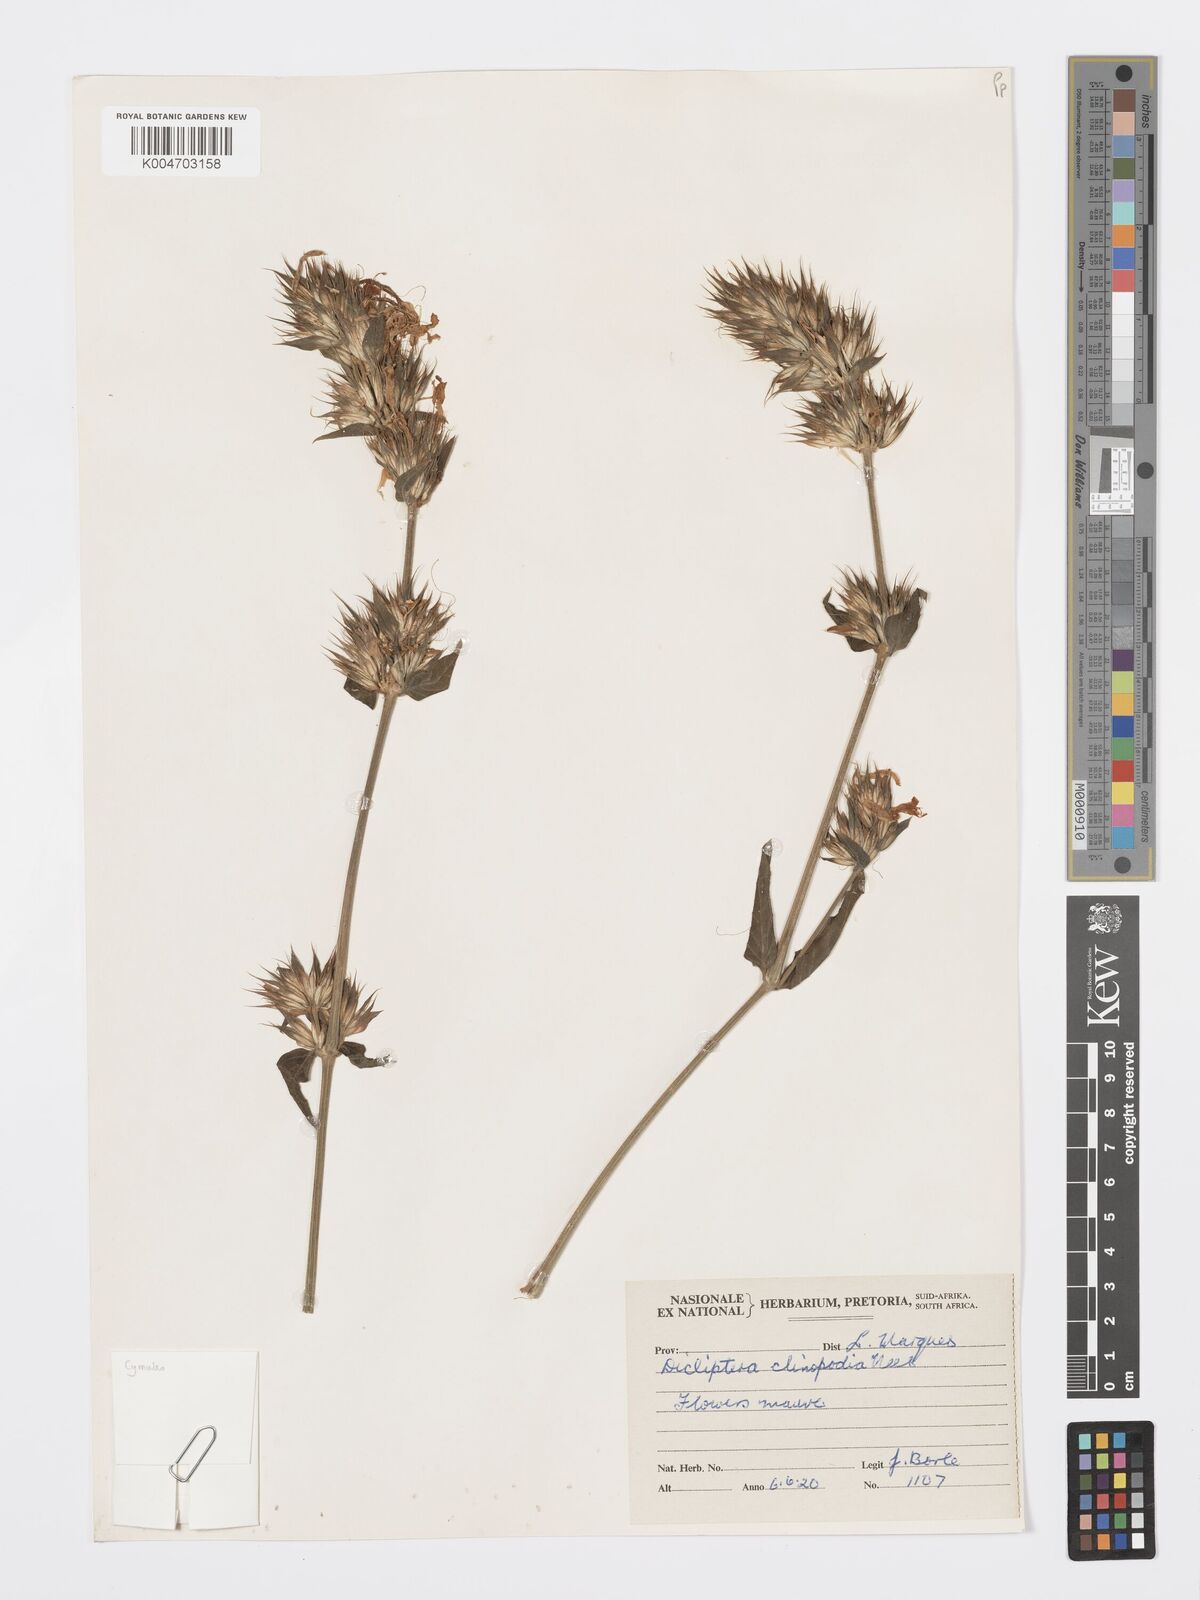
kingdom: Plantae
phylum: Tracheophyta
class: Magnoliopsida
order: Lamiales
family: Acanthaceae
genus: Dicliptera
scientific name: Dicliptera clinopodia
